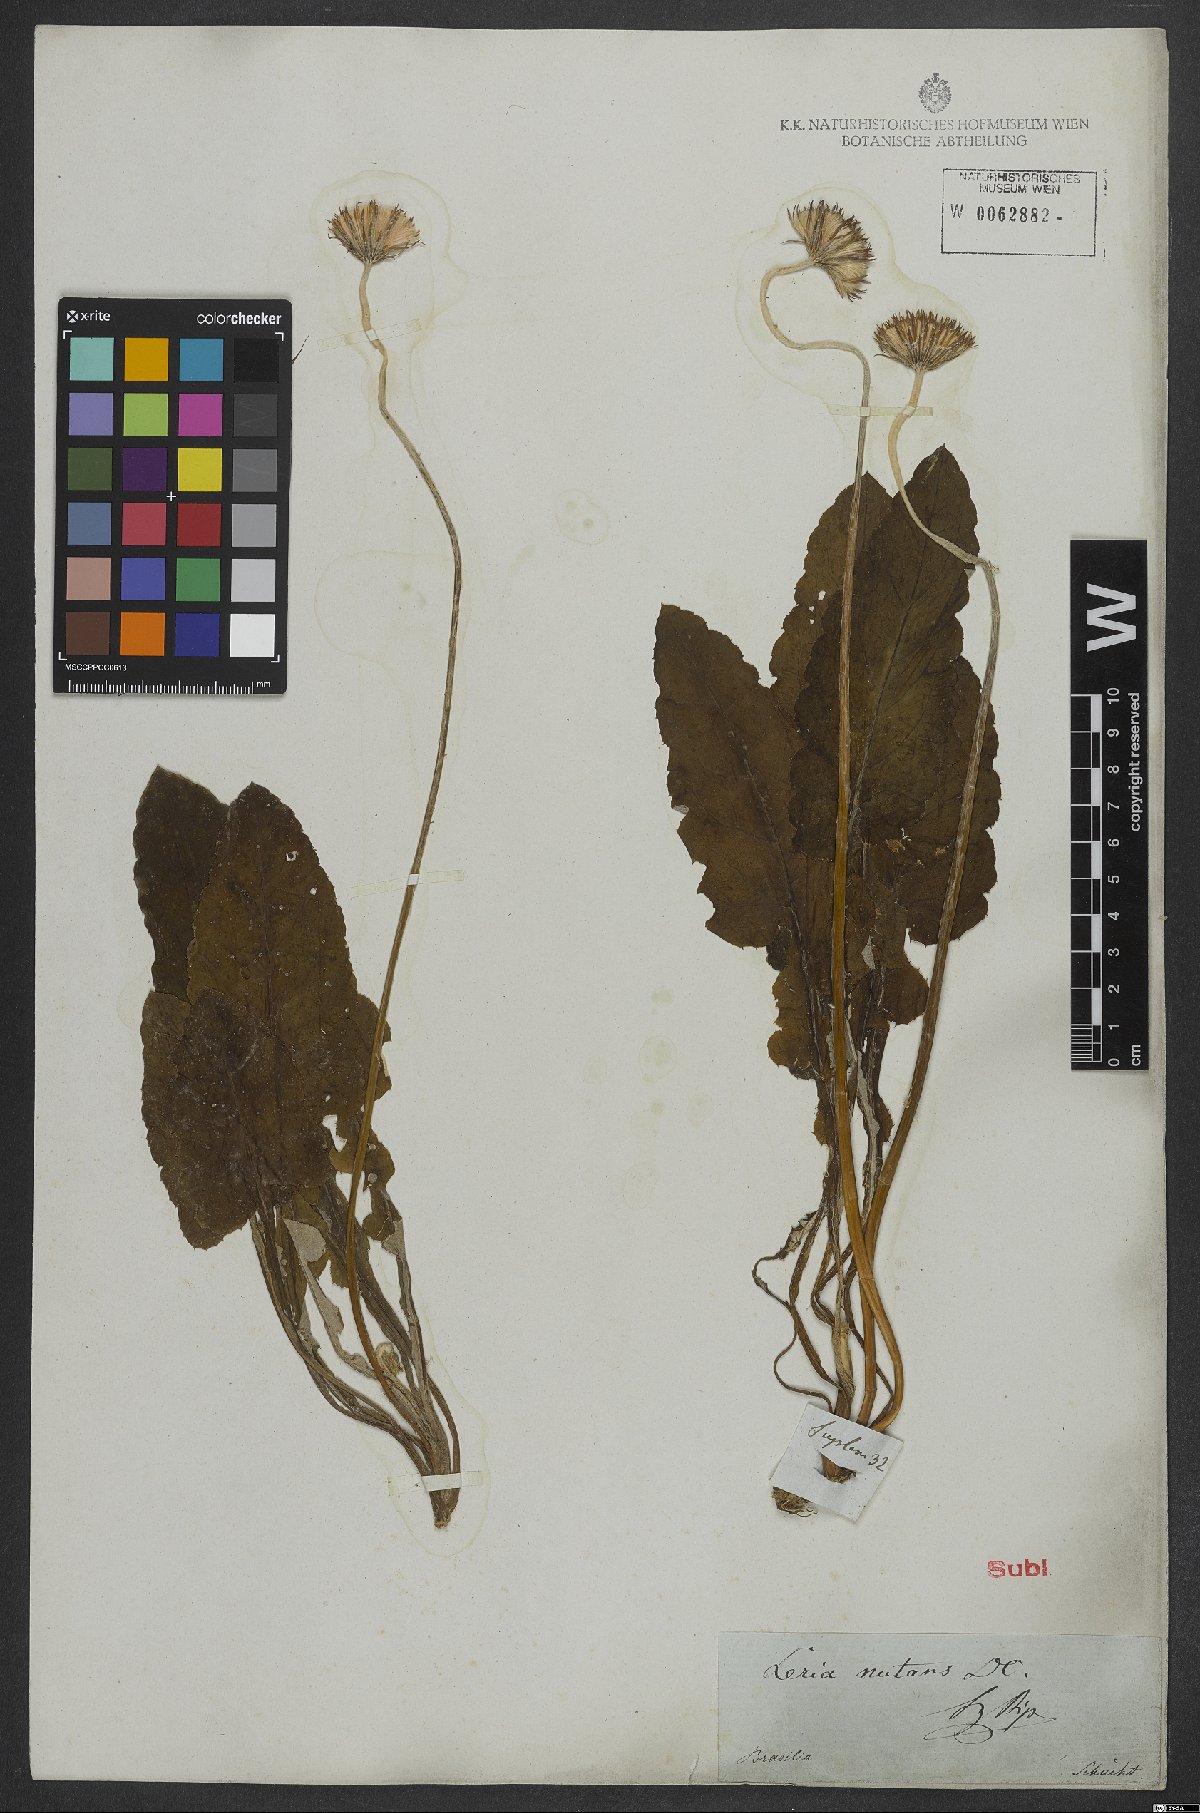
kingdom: Plantae
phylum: Tracheophyta
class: Magnoliopsida
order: Asterales
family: Asteraceae
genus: Chaptalia
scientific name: Chaptalia nutans
